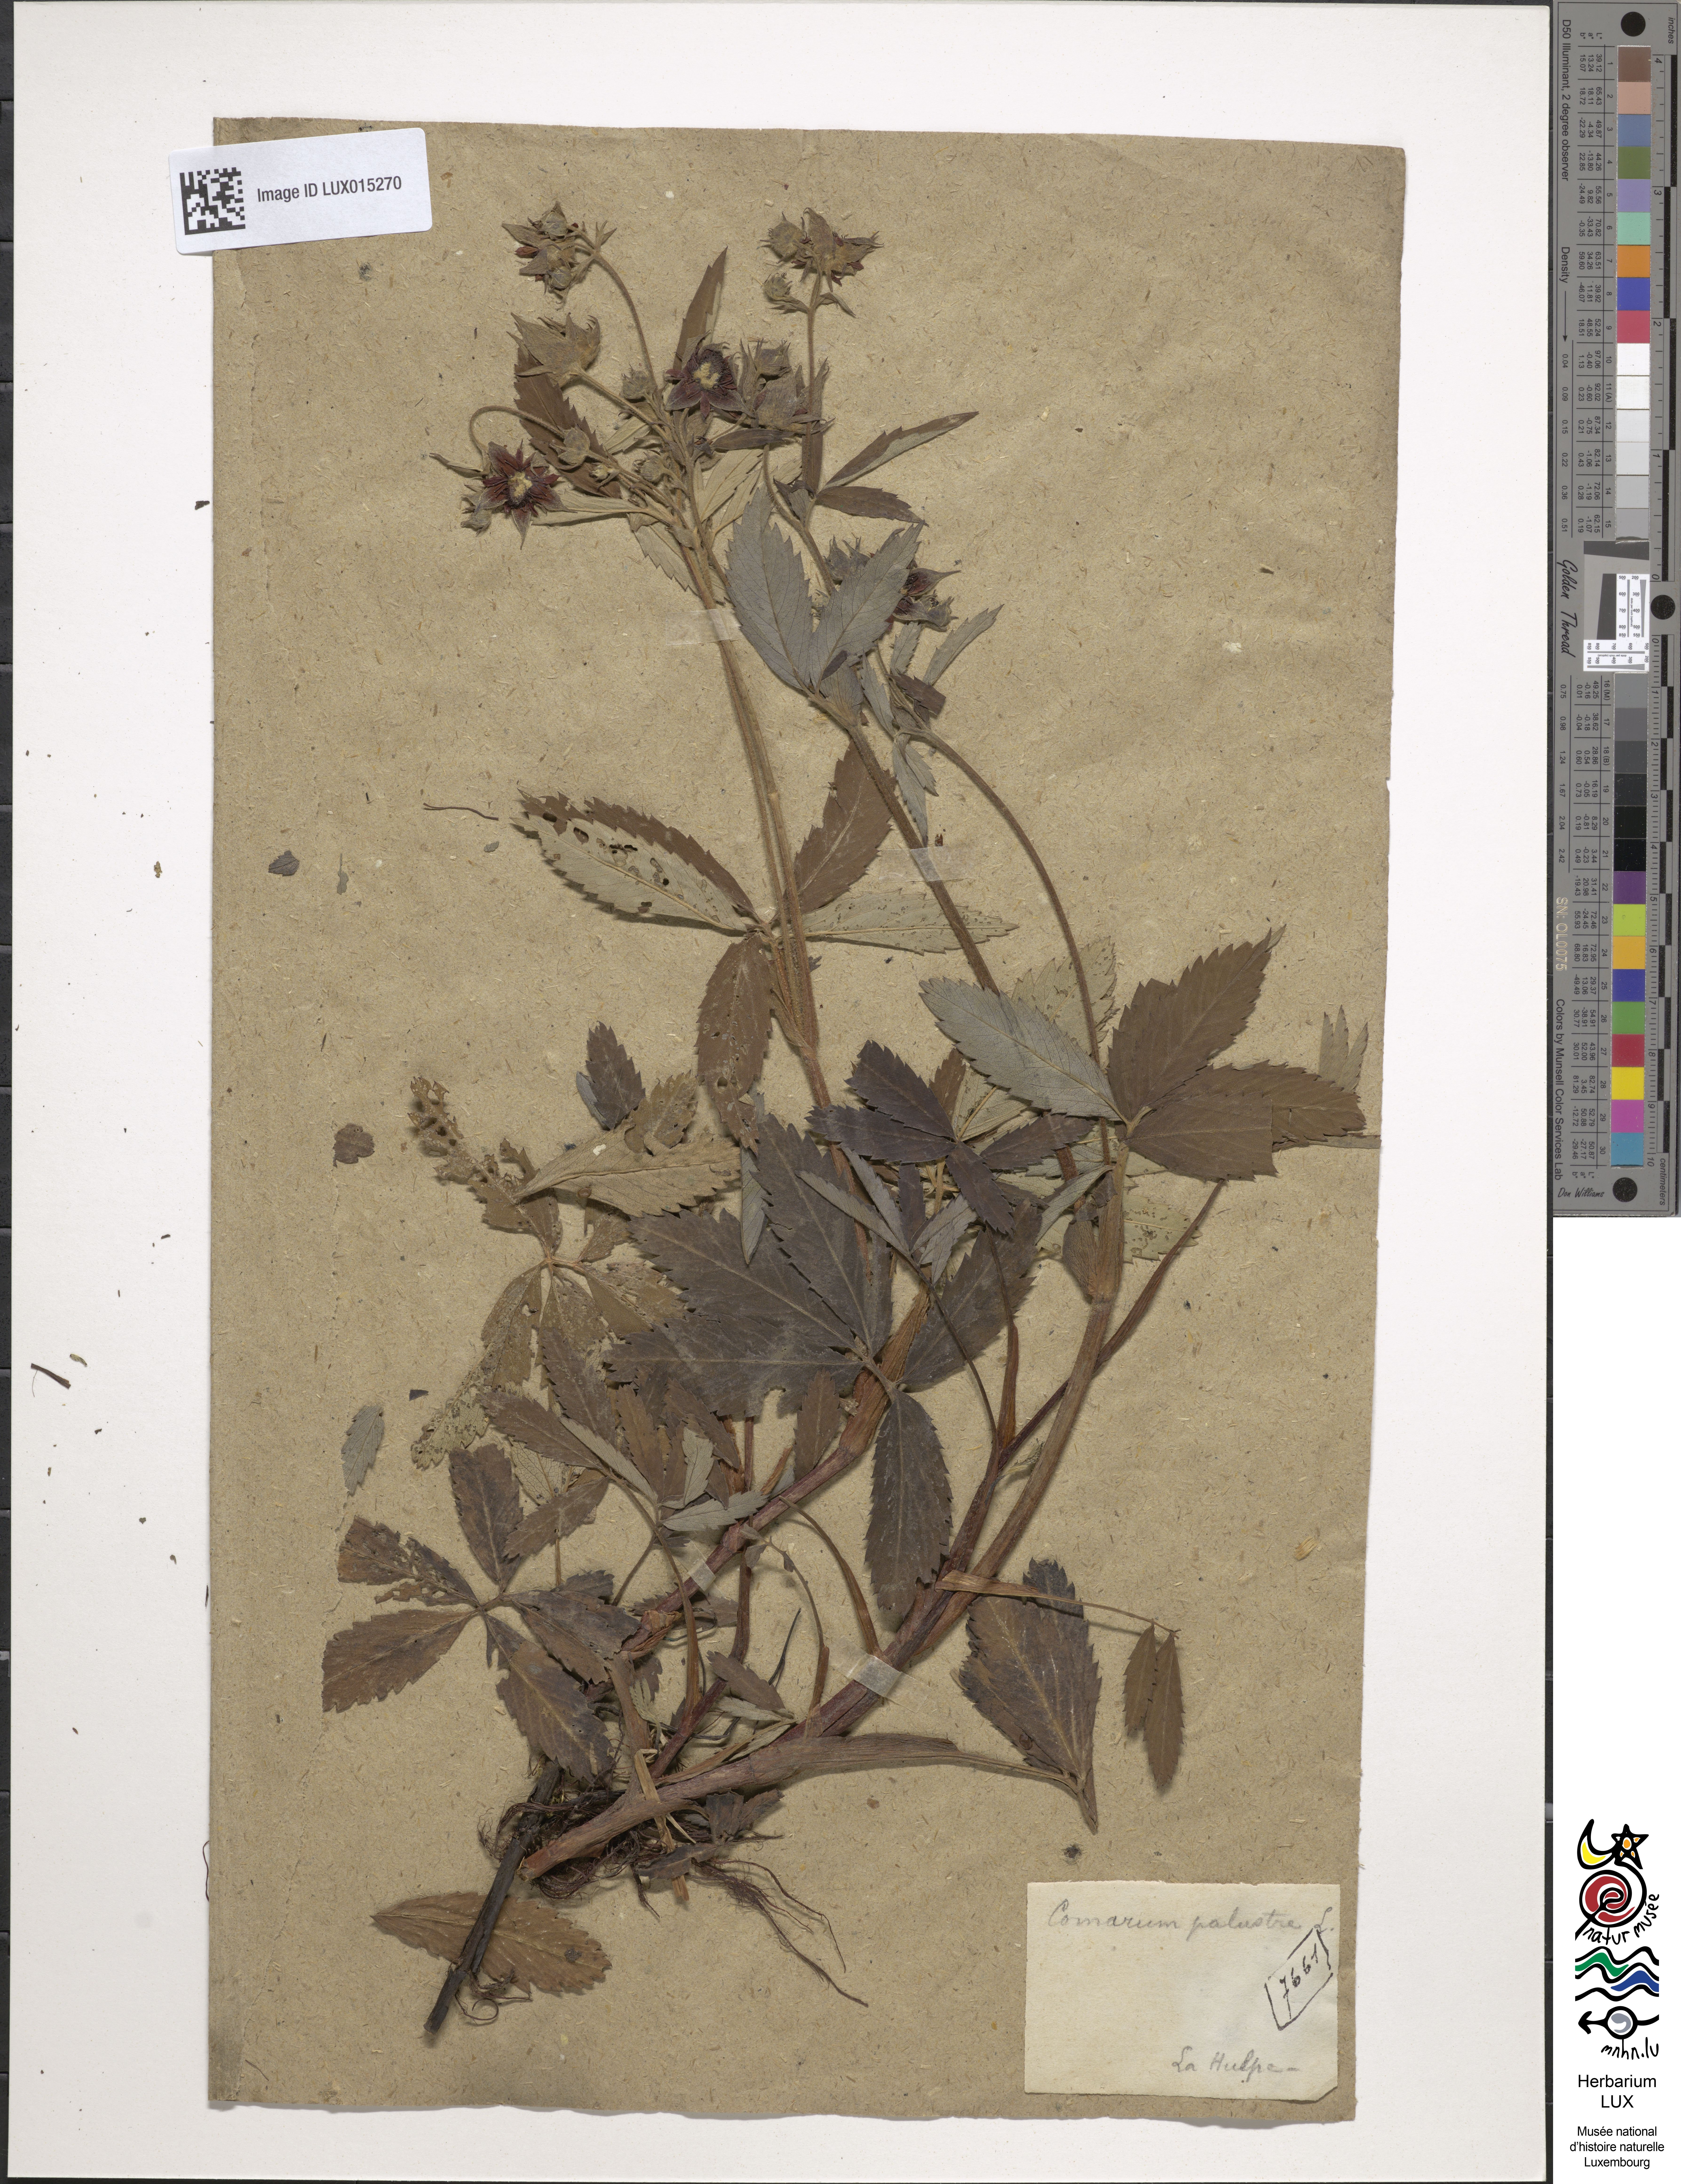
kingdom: Plantae
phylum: Tracheophyta
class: Magnoliopsida
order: Rosales
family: Rosaceae
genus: Comarum
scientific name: Comarum palustre
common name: Marsh cinquefoil
